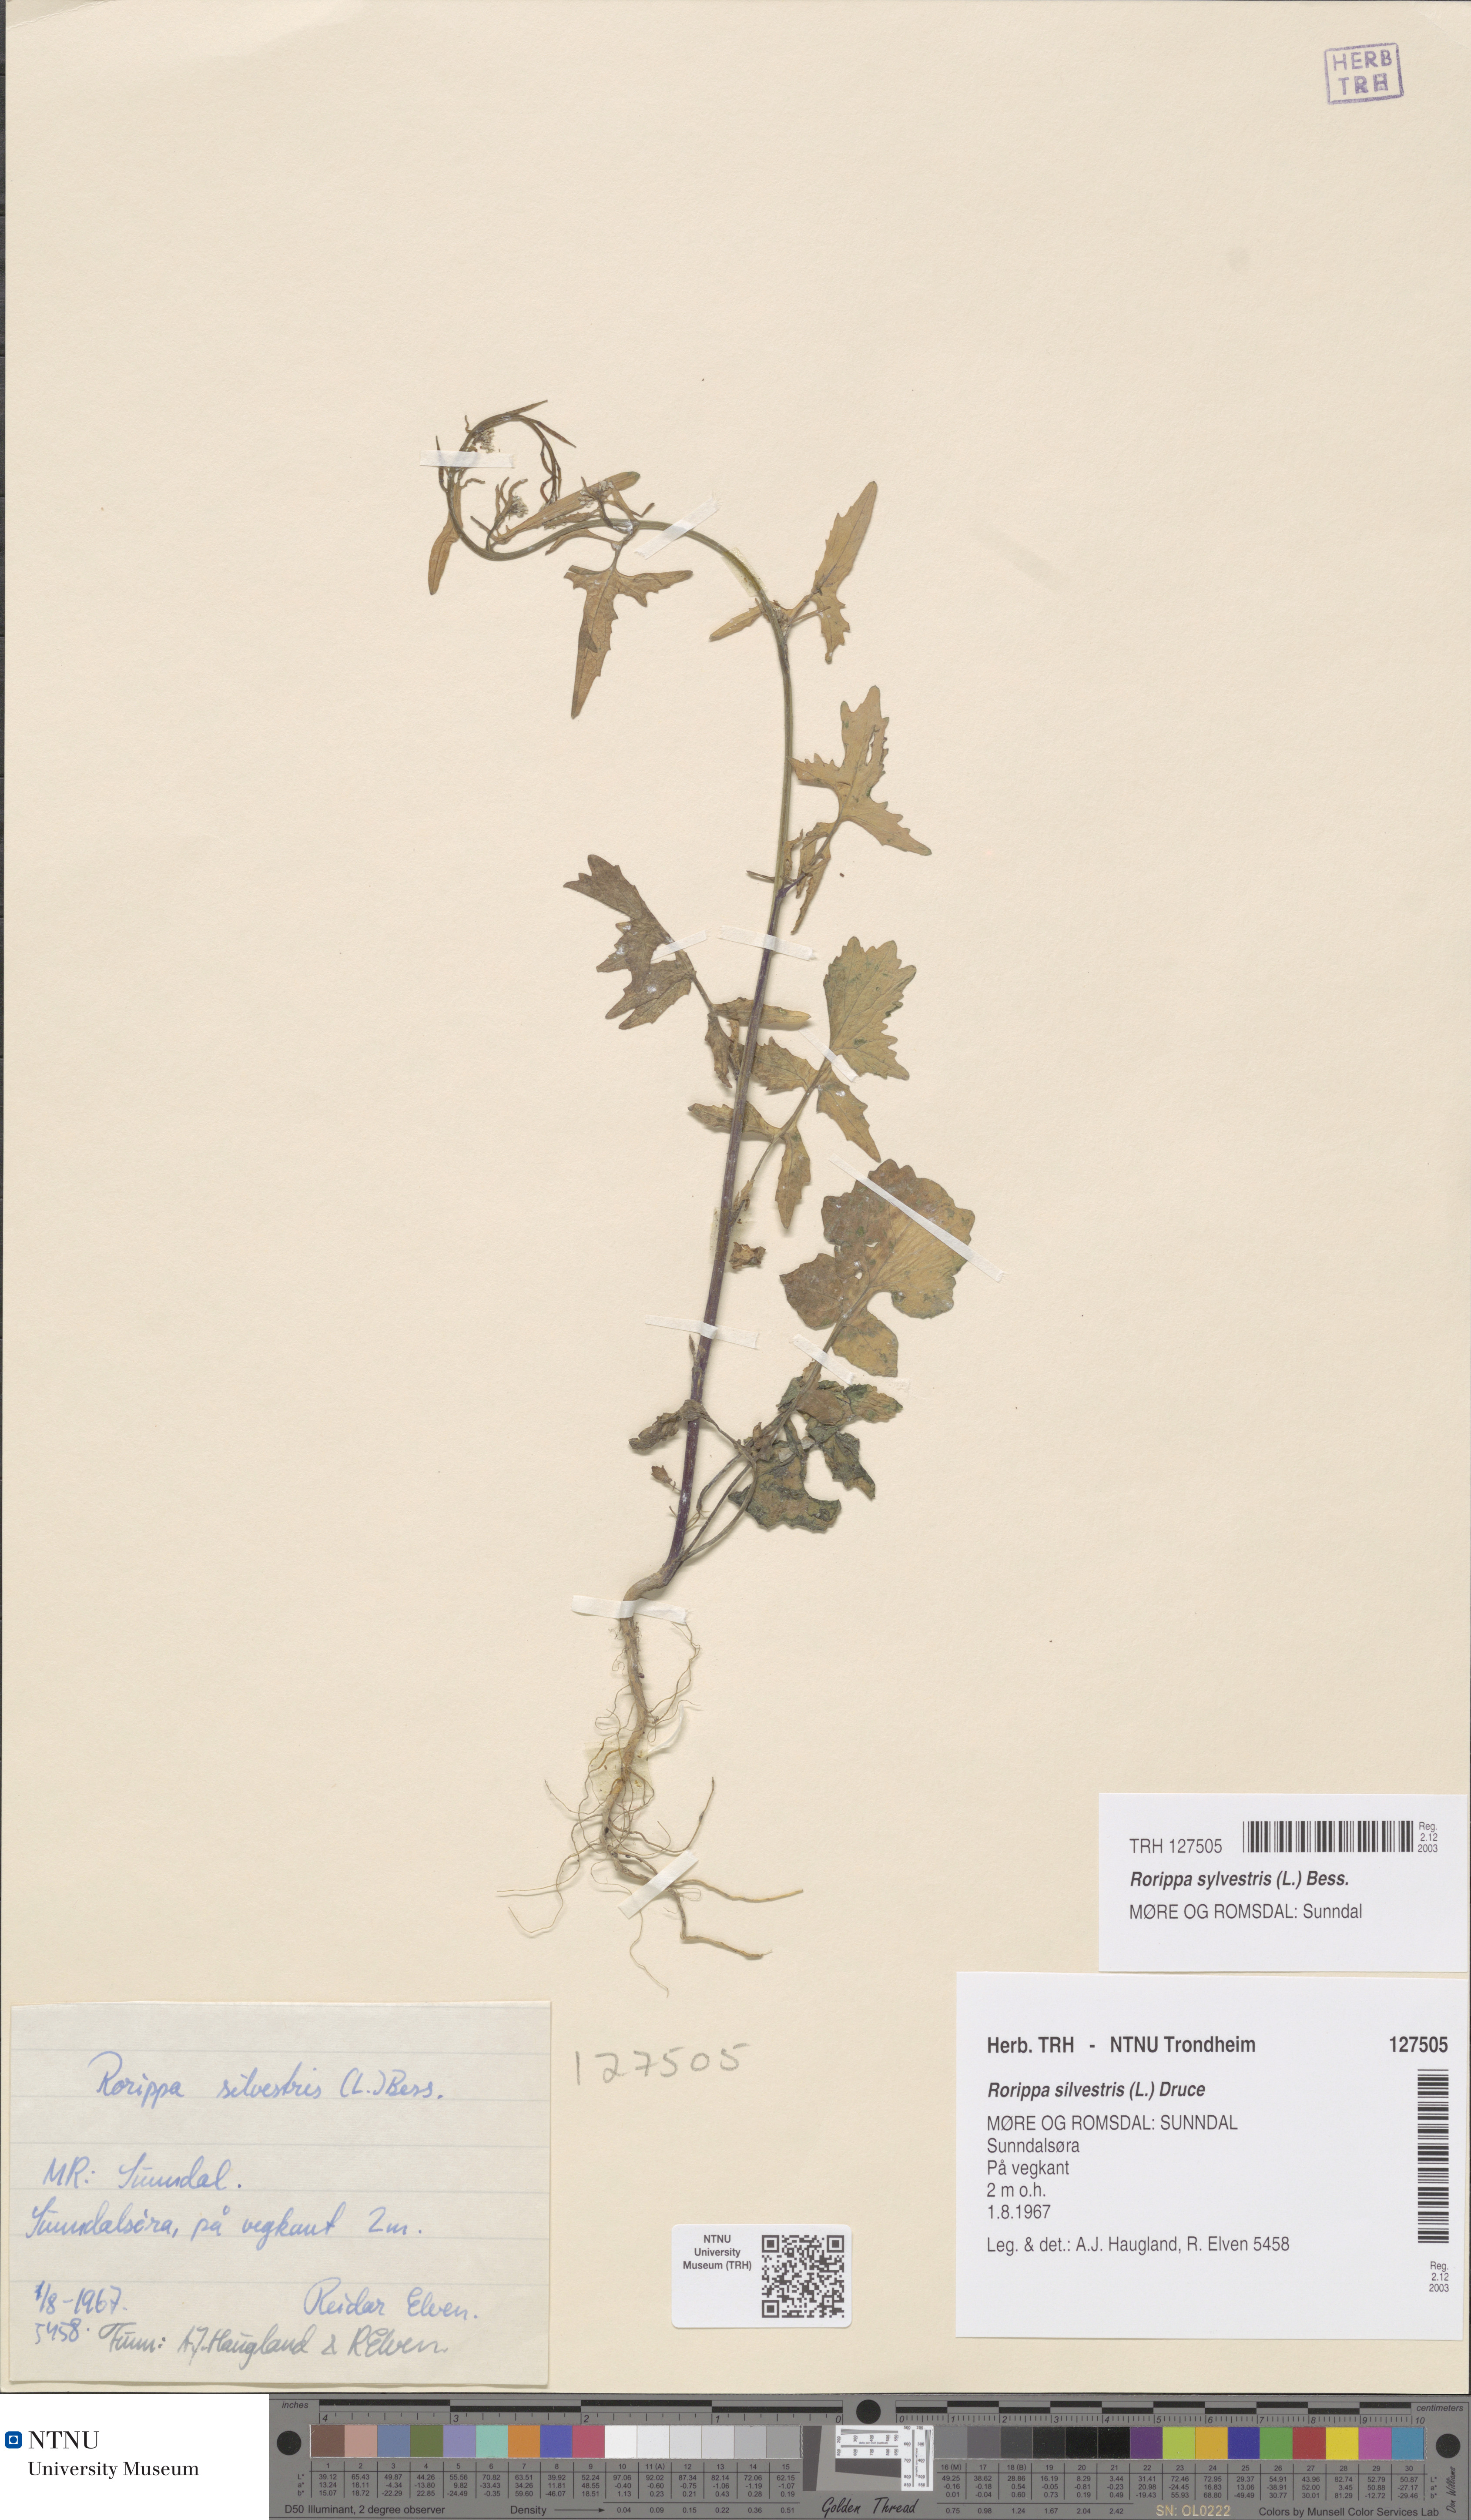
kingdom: Plantae
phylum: Tracheophyta
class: Magnoliopsida
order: Brassicales
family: Brassicaceae
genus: Rorippa
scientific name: Rorippa sylvestris
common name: Creeping yellowcress
